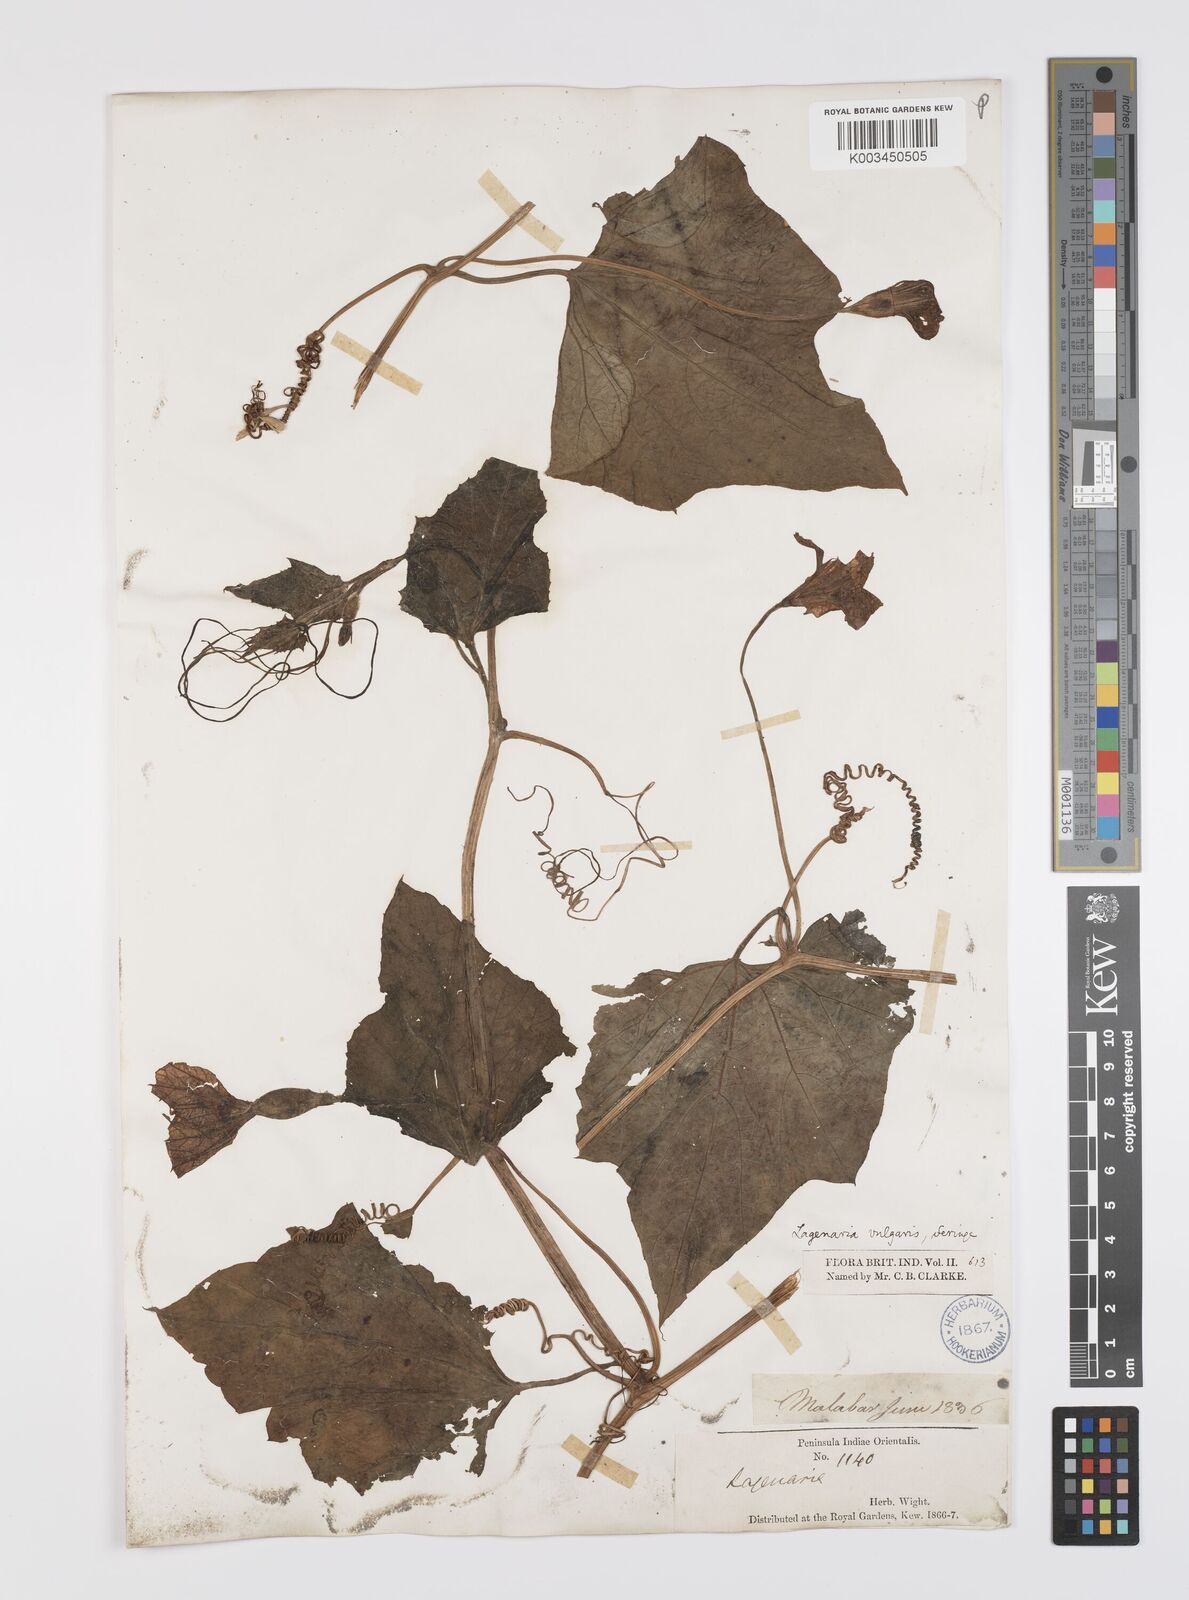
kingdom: Plantae
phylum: Tracheophyta
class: Magnoliopsida
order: Cucurbitales
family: Cucurbitaceae
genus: Lagenaria
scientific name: Lagenaria siceraria
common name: Bottle gourd
